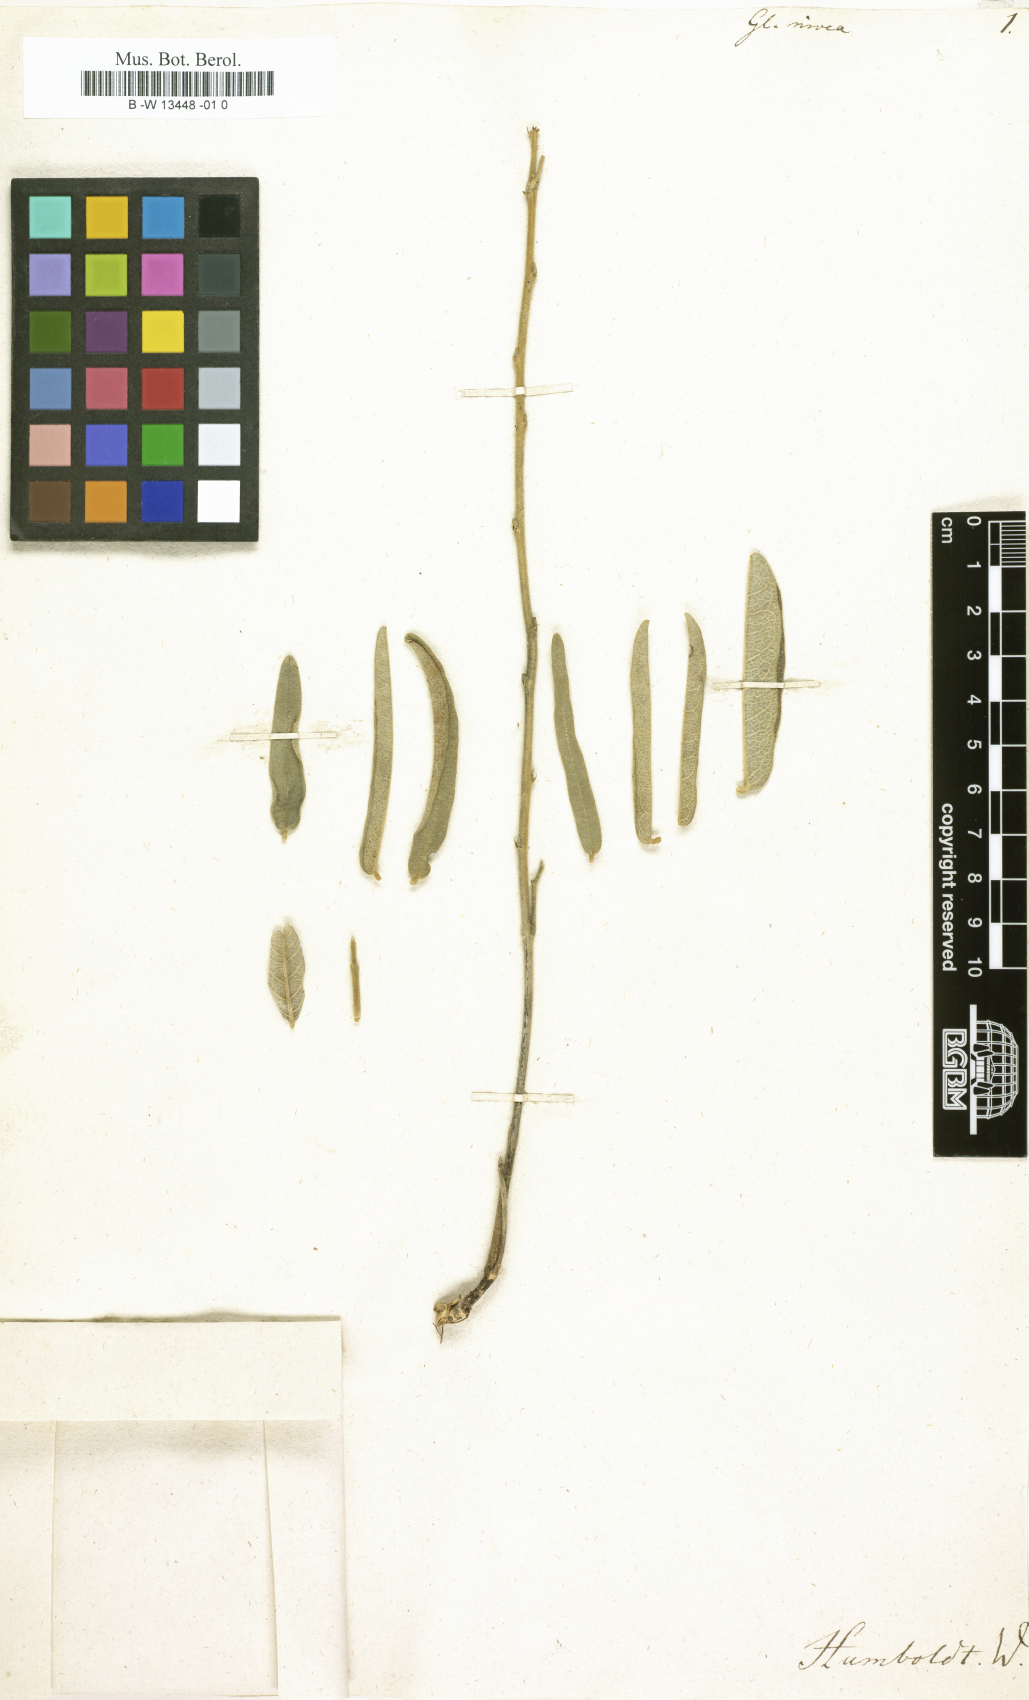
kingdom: Plantae
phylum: Tracheophyta
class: Magnoliopsida
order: Fabales
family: Fabaceae
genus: Glycine
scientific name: Glycine
